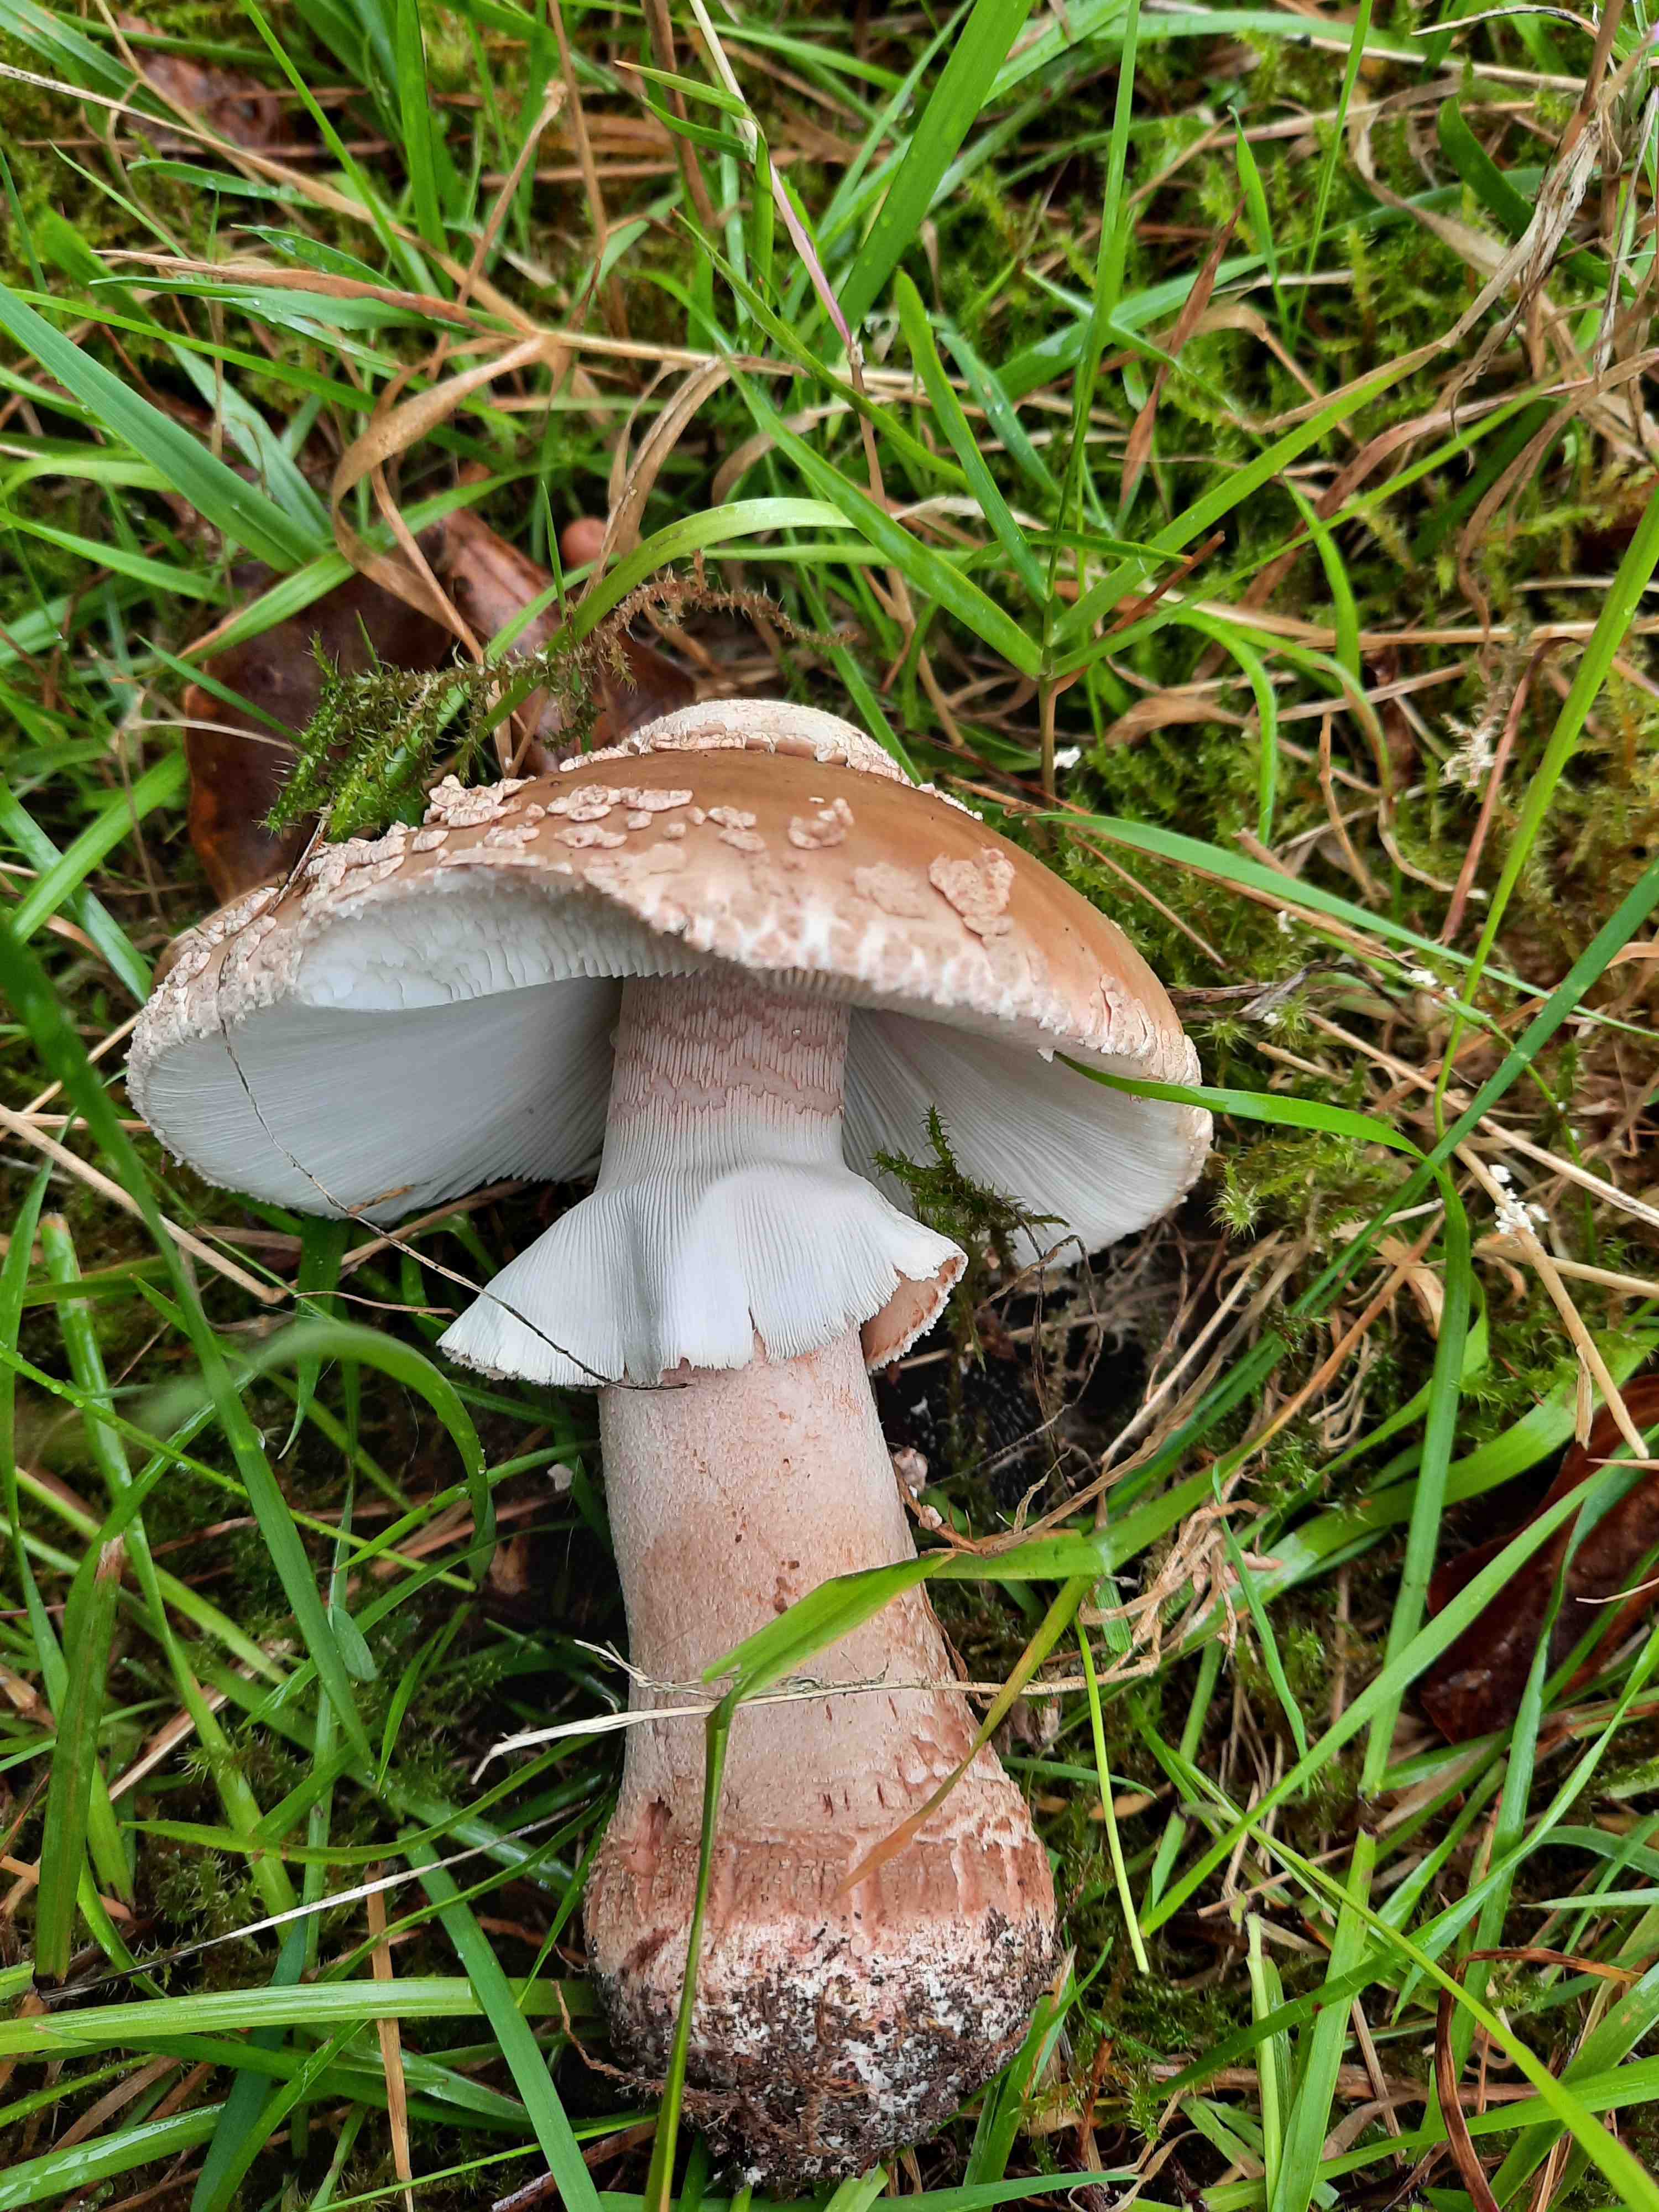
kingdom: Fungi
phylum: Basidiomycota
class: Agaricomycetes
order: Agaricales
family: Amanitaceae
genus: Amanita
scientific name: Amanita rubescens
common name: rødmende fluesvamp
